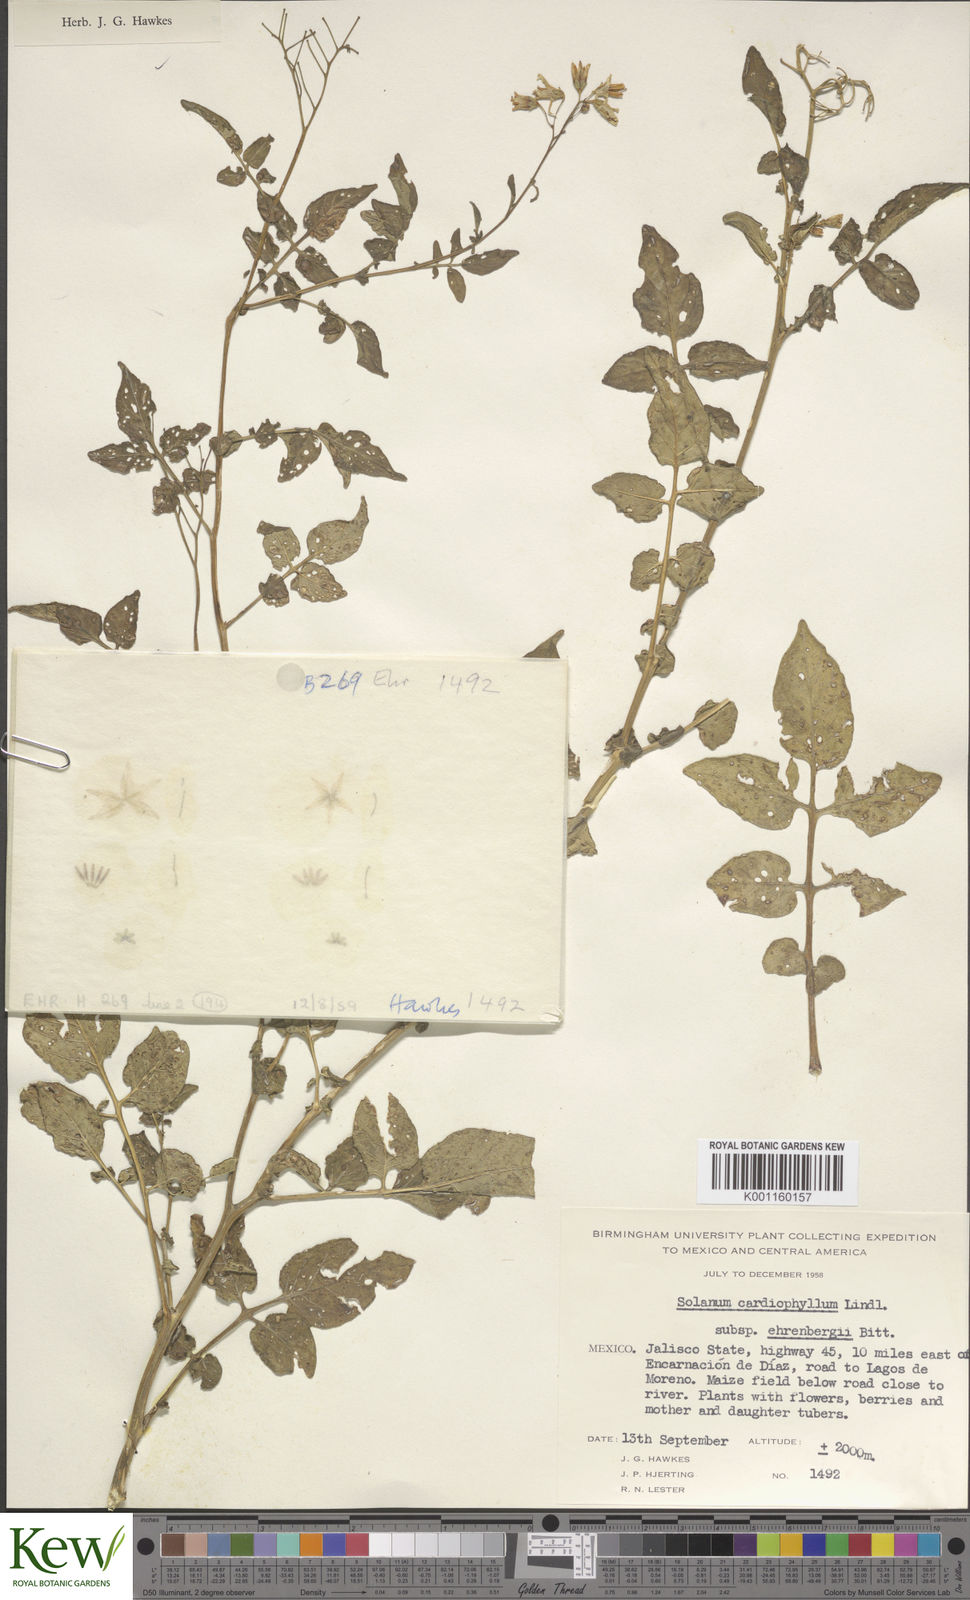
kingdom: Plantae
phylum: Tracheophyta
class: Magnoliopsida
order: Solanales
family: Solanaceae
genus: Solanum
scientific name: Solanum cardiophyllum
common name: Heartleaf horsenettle
